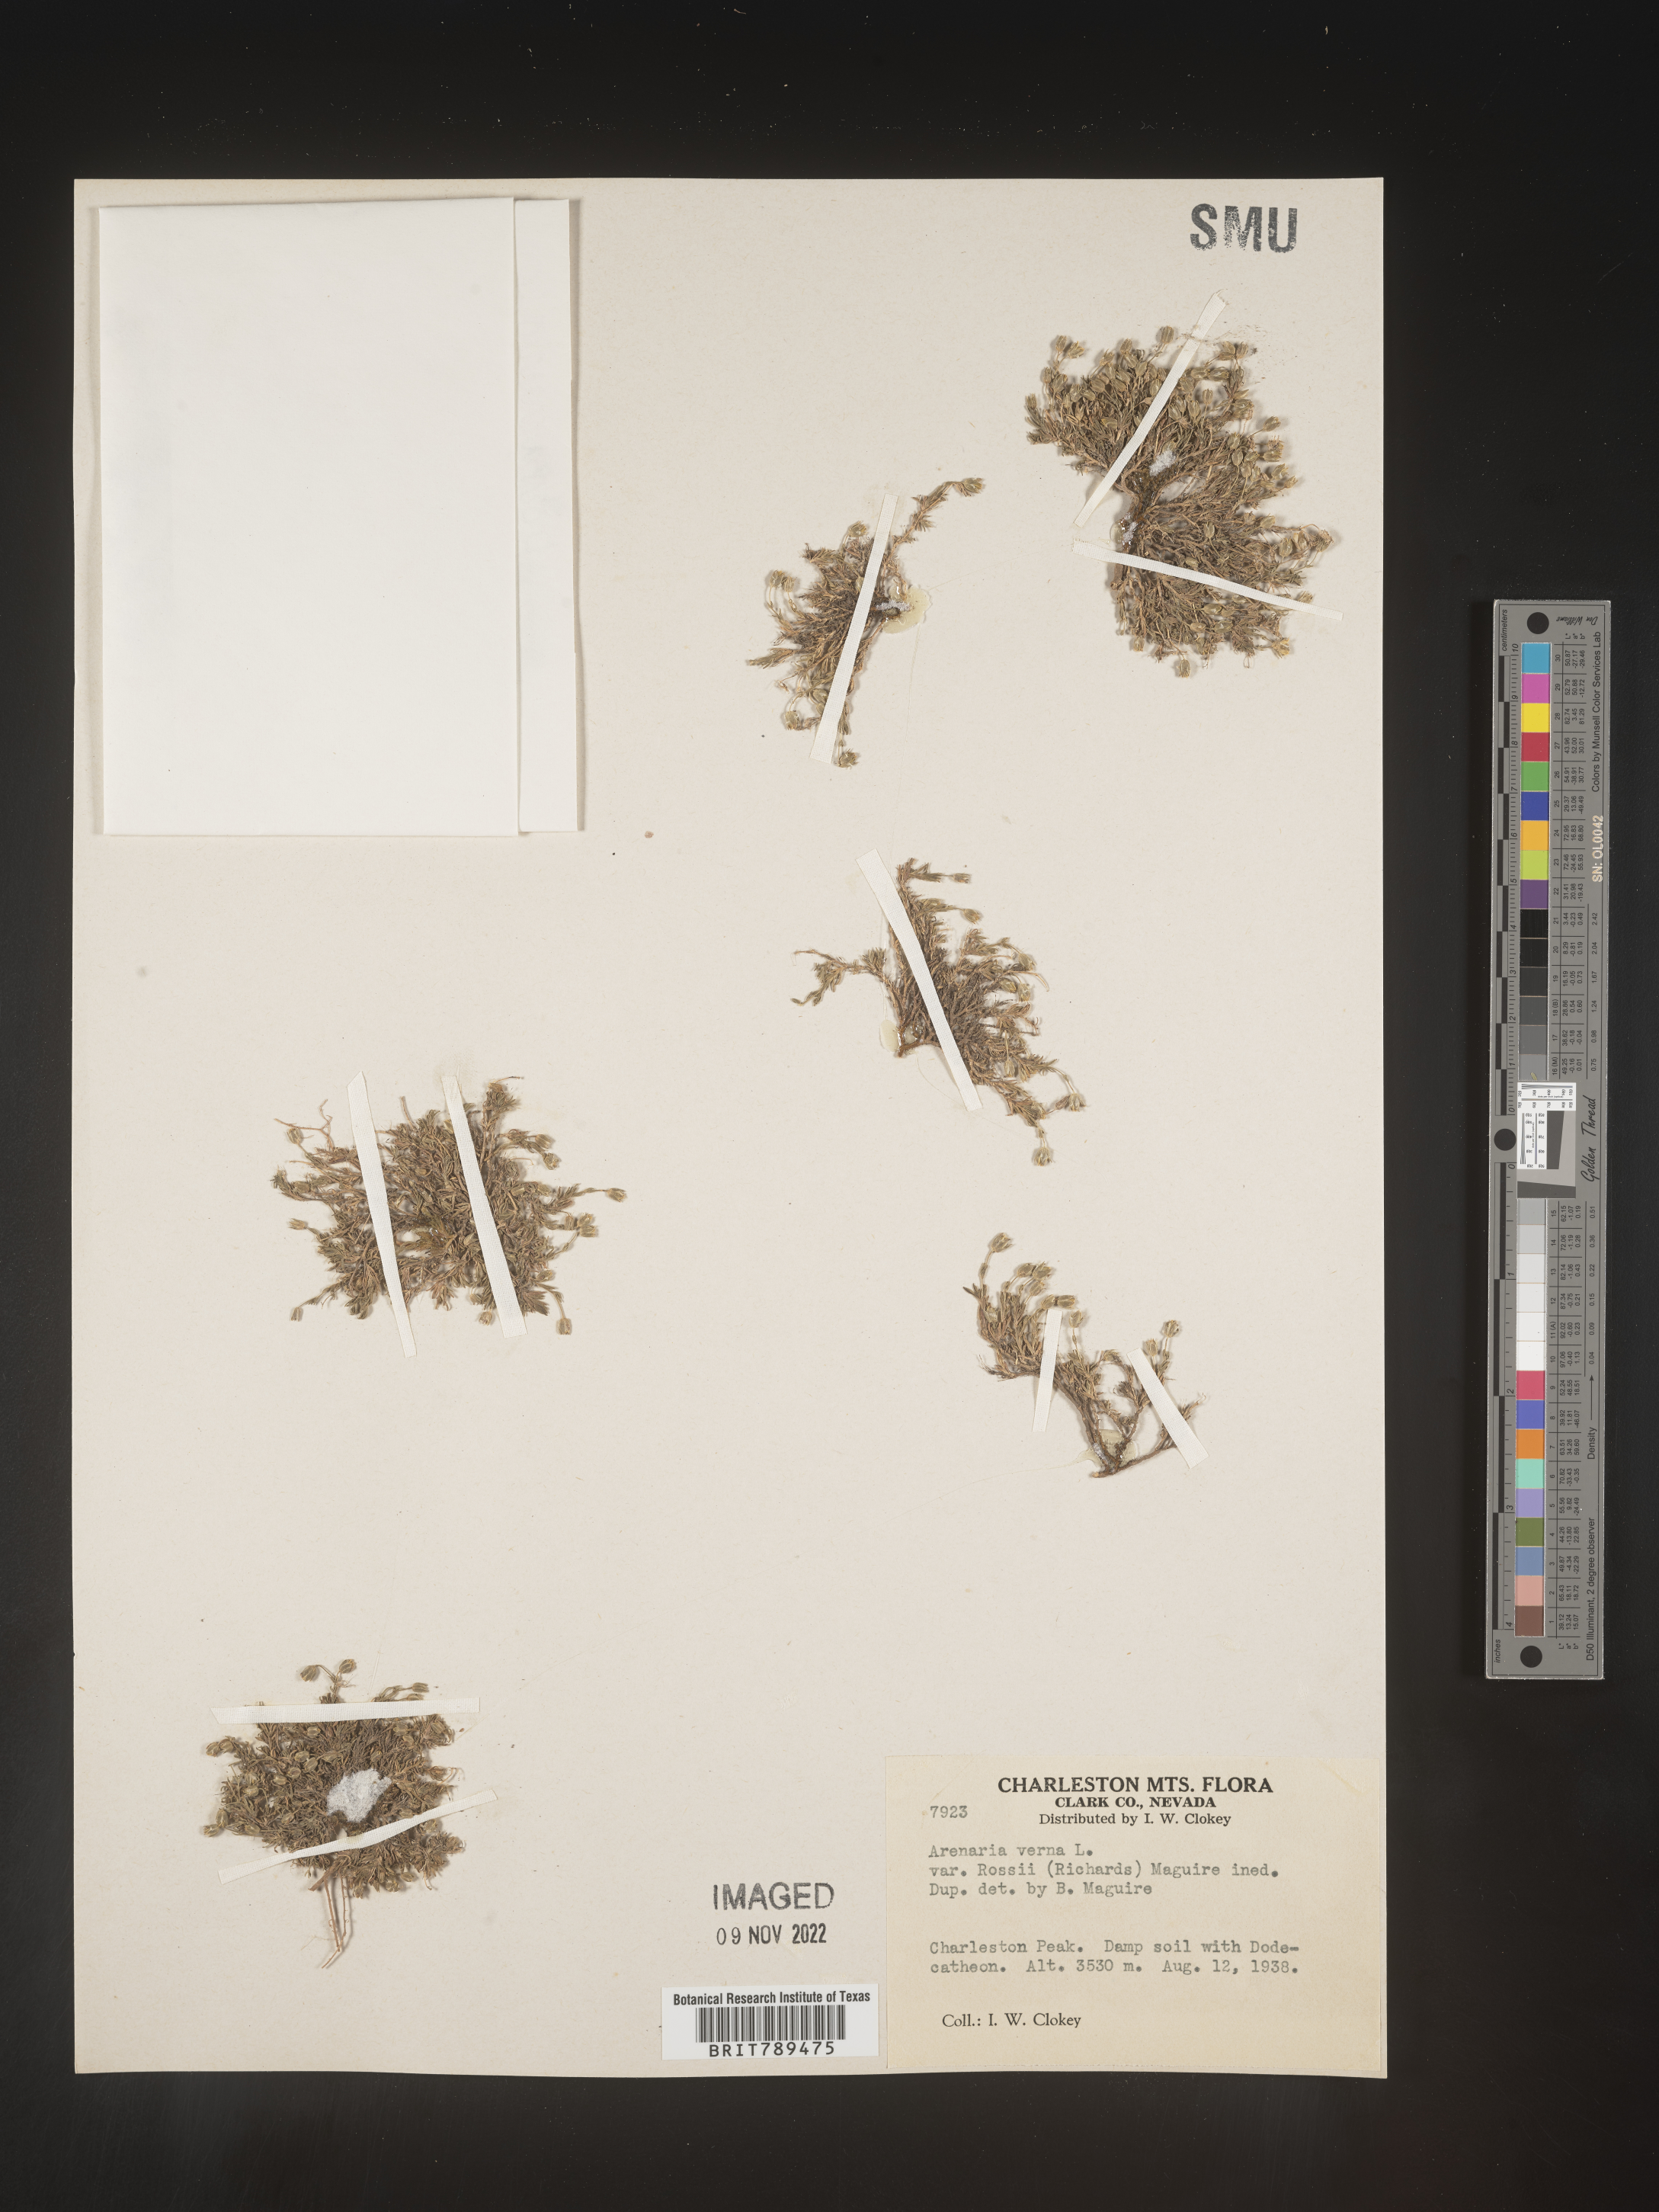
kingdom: Plantae
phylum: Tracheophyta
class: Magnoliopsida
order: Caryophyllales
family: Caryophyllaceae
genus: Arenaria
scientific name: Arenaria
